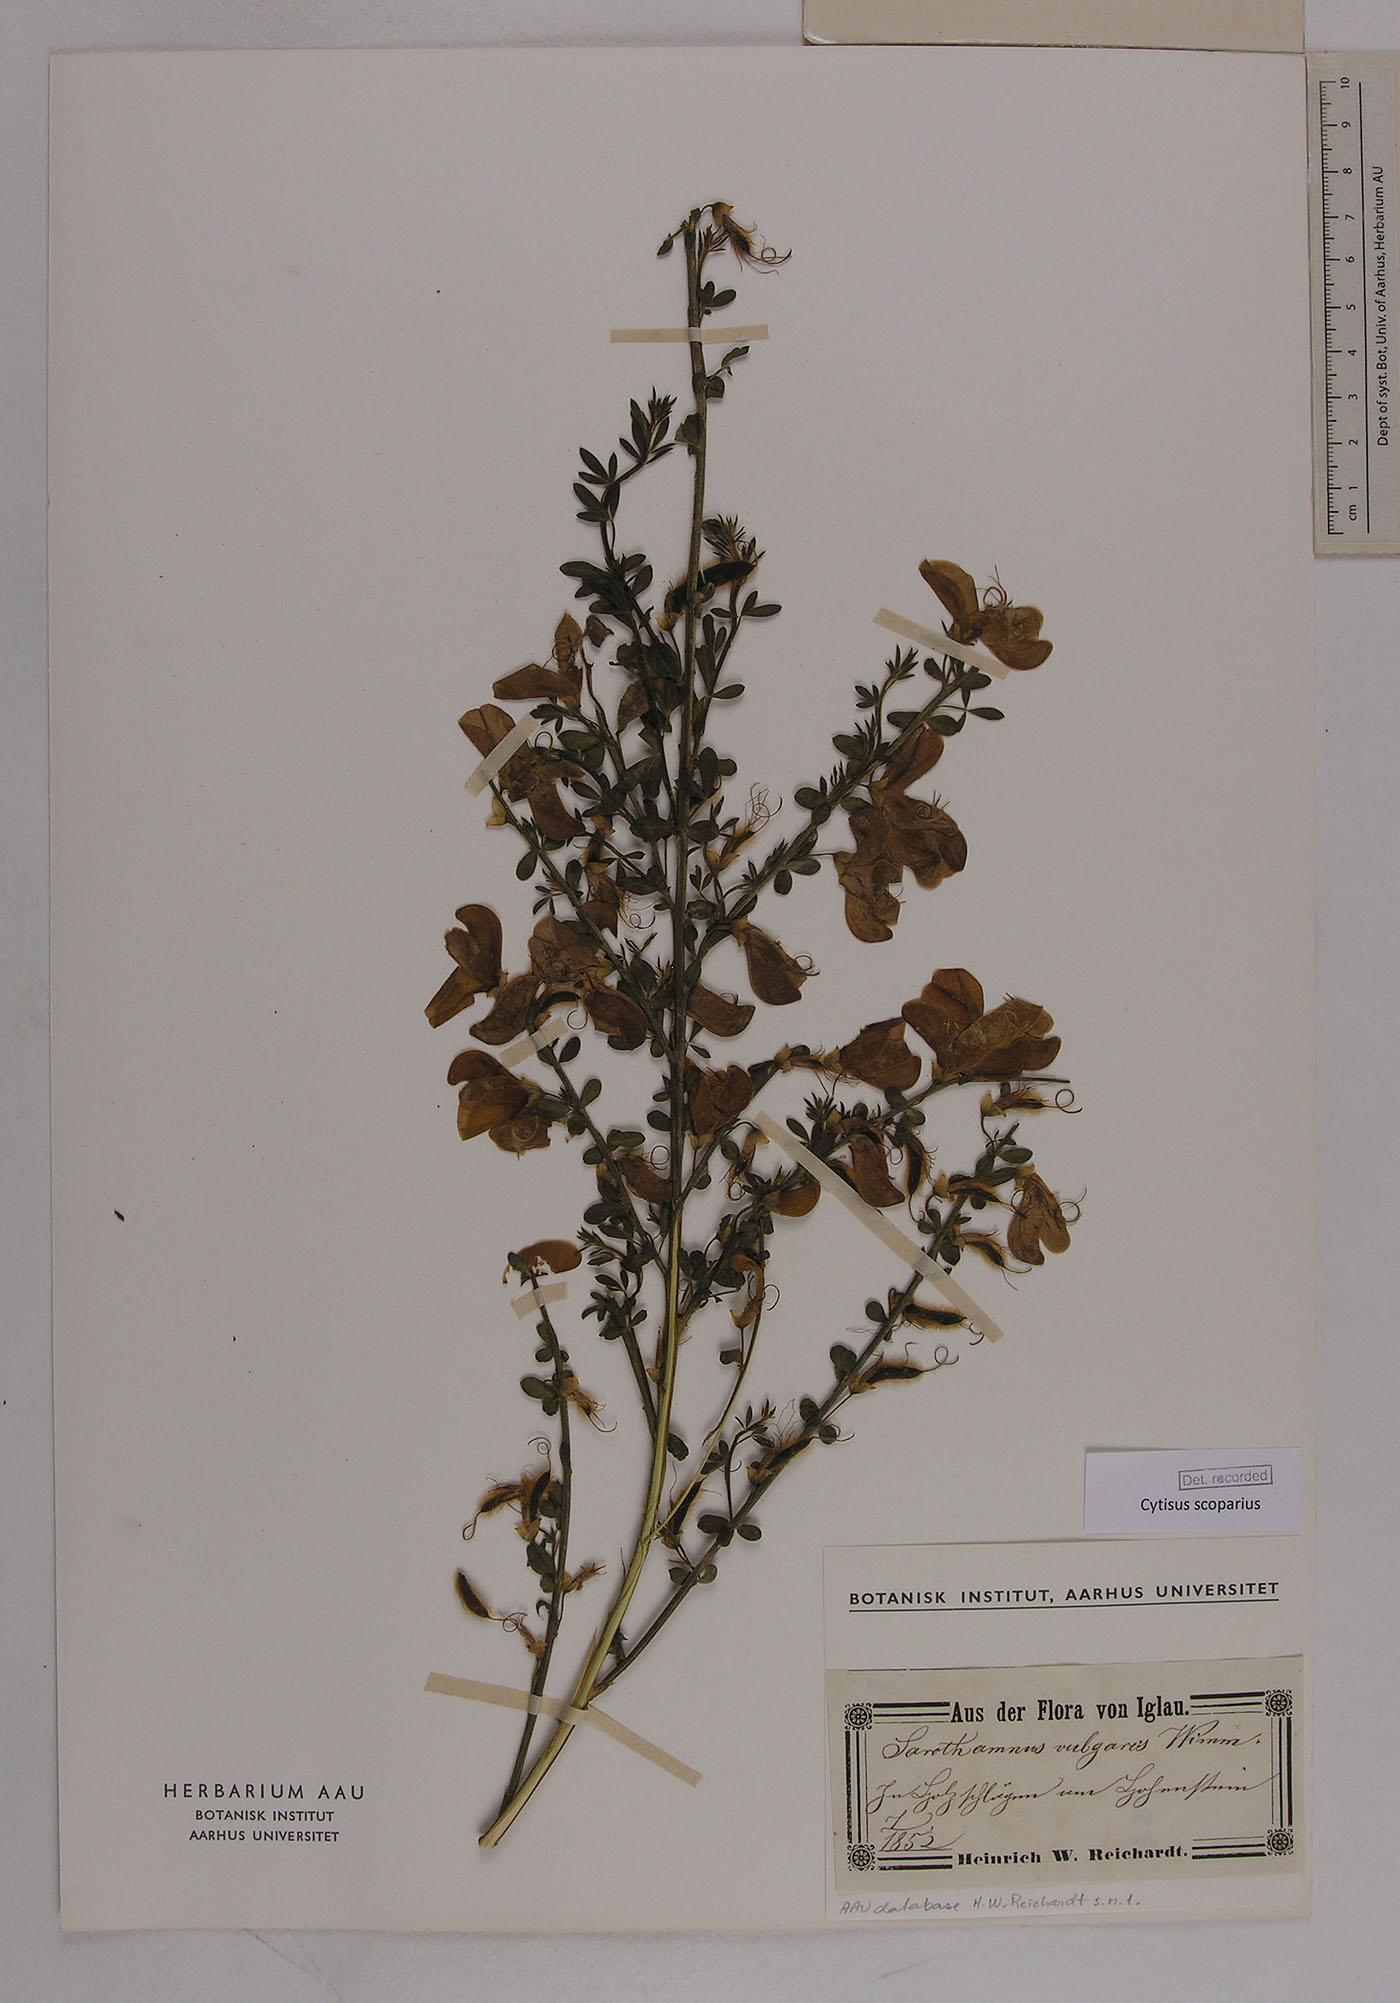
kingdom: Plantae
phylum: Tracheophyta
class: Magnoliopsida
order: Fabales
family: Fabaceae
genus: Cytisus
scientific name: Cytisus scoparius
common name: Scotch broom
